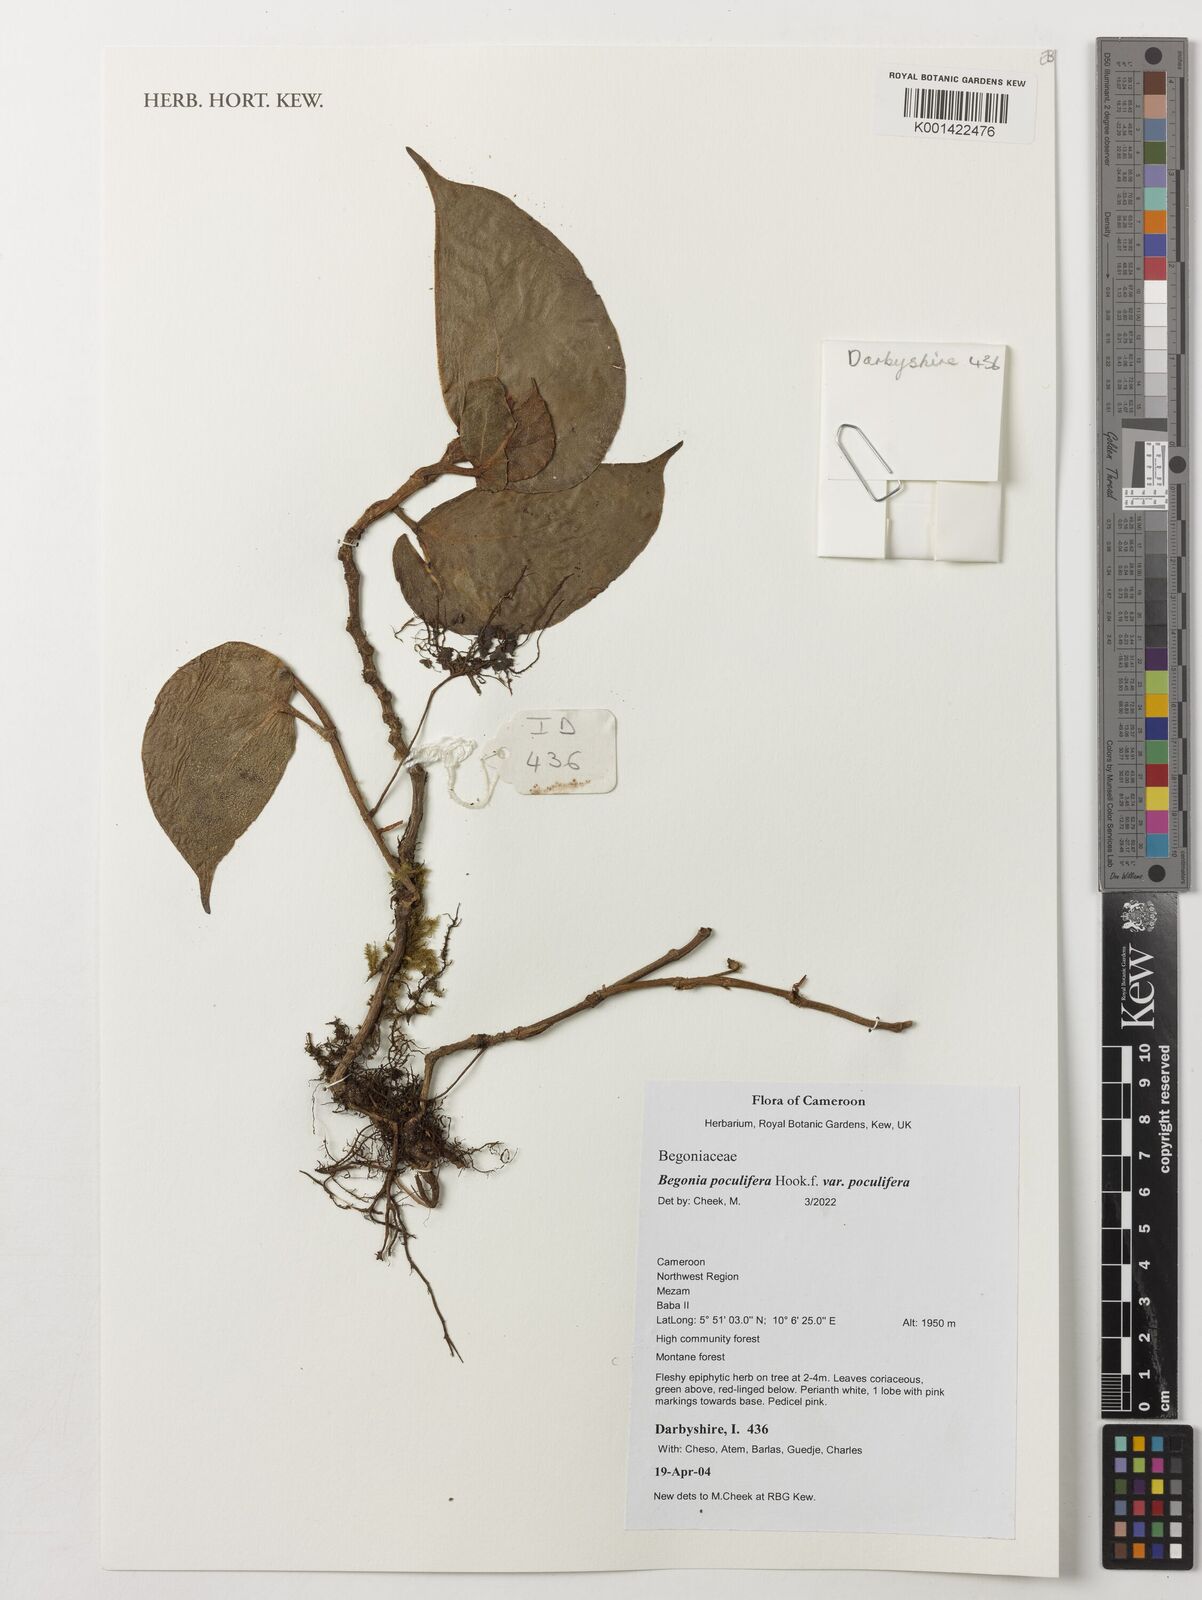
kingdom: Plantae
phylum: Tracheophyta
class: Magnoliopsida
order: Cucurbitales
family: Begoniaceae
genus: Begonia
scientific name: Begonia poculifera
